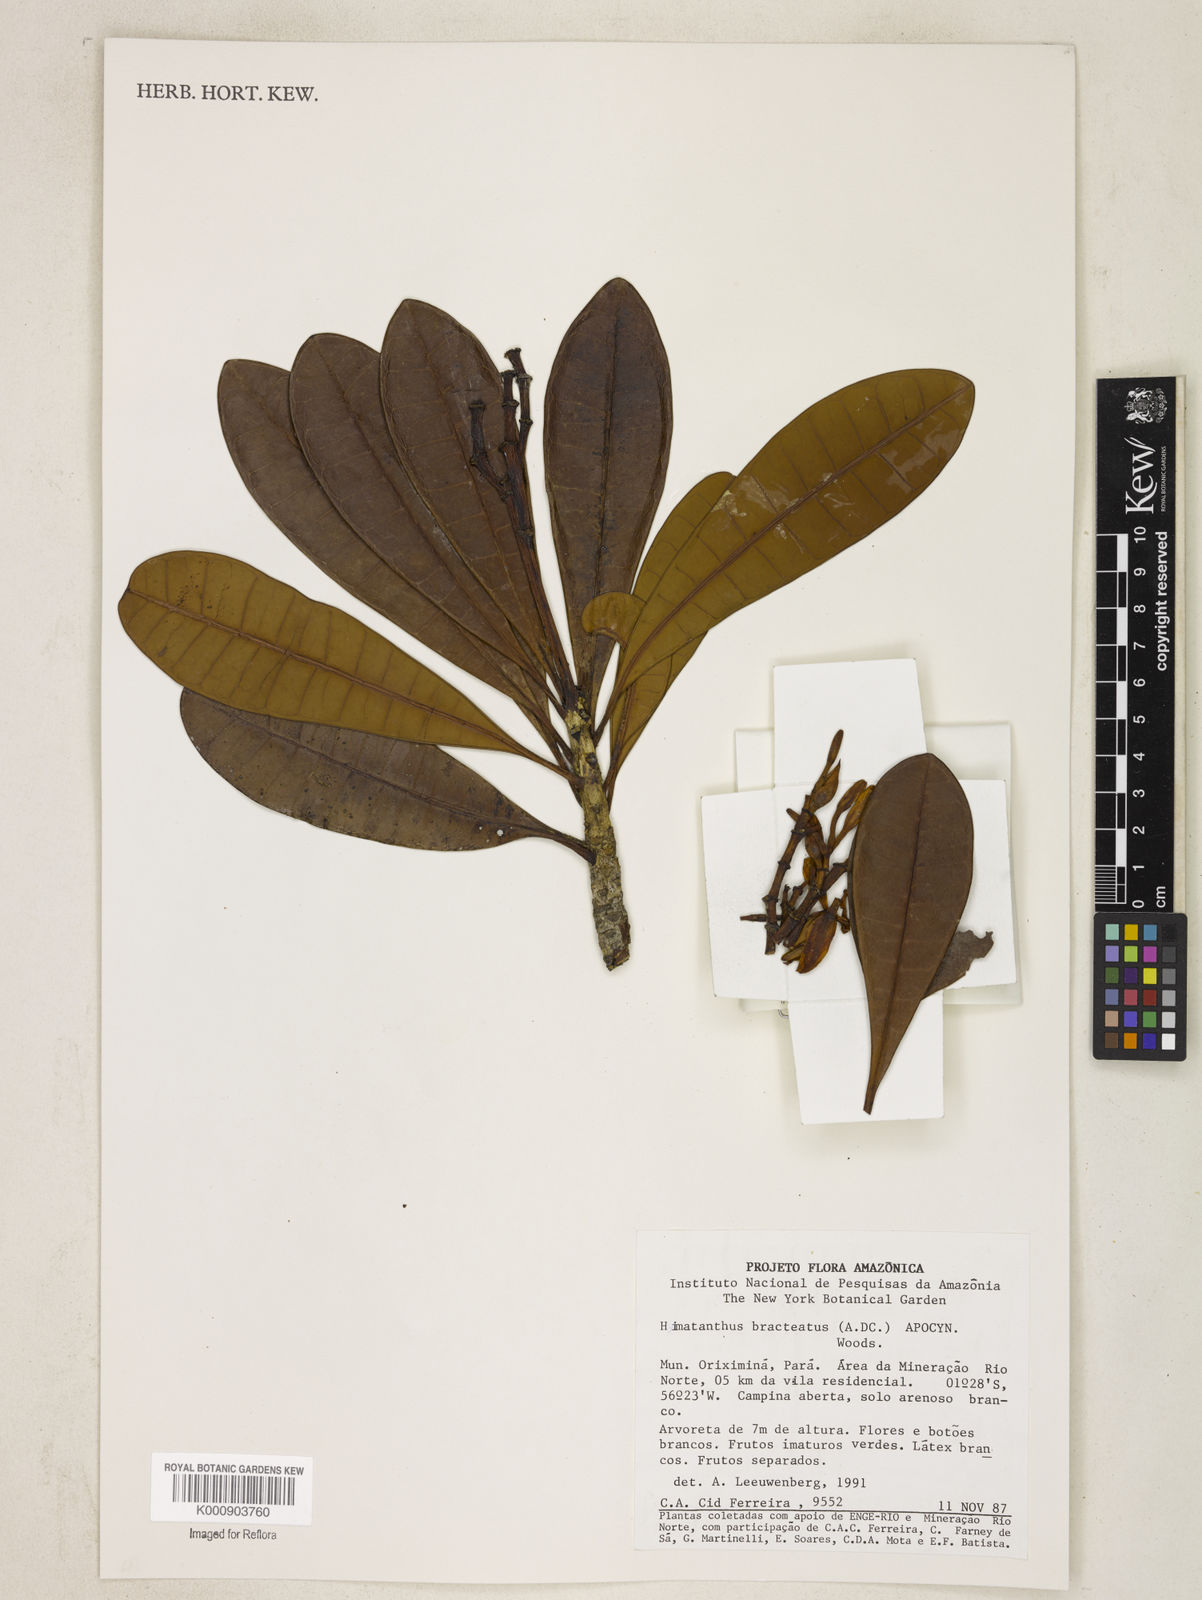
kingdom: Plantae
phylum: Tracheophyta
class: Magnoliopsida
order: Gentianales
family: Apocynaceae
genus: Himatanthus
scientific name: Himatanthus bracteatus
